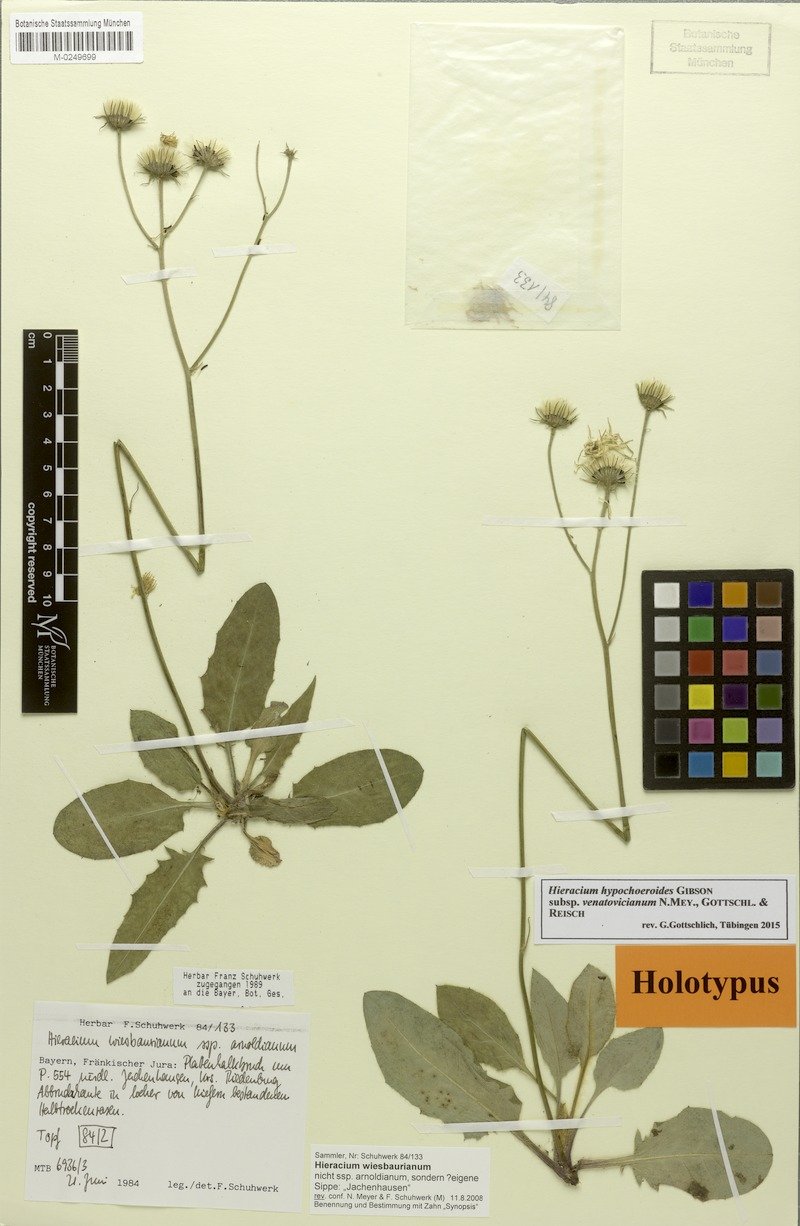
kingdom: Plantae
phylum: Tracheophyta
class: Magnoliopsida
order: Asterales
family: Asteraceae
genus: Hieracium
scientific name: Hieracium hypochoeroides
